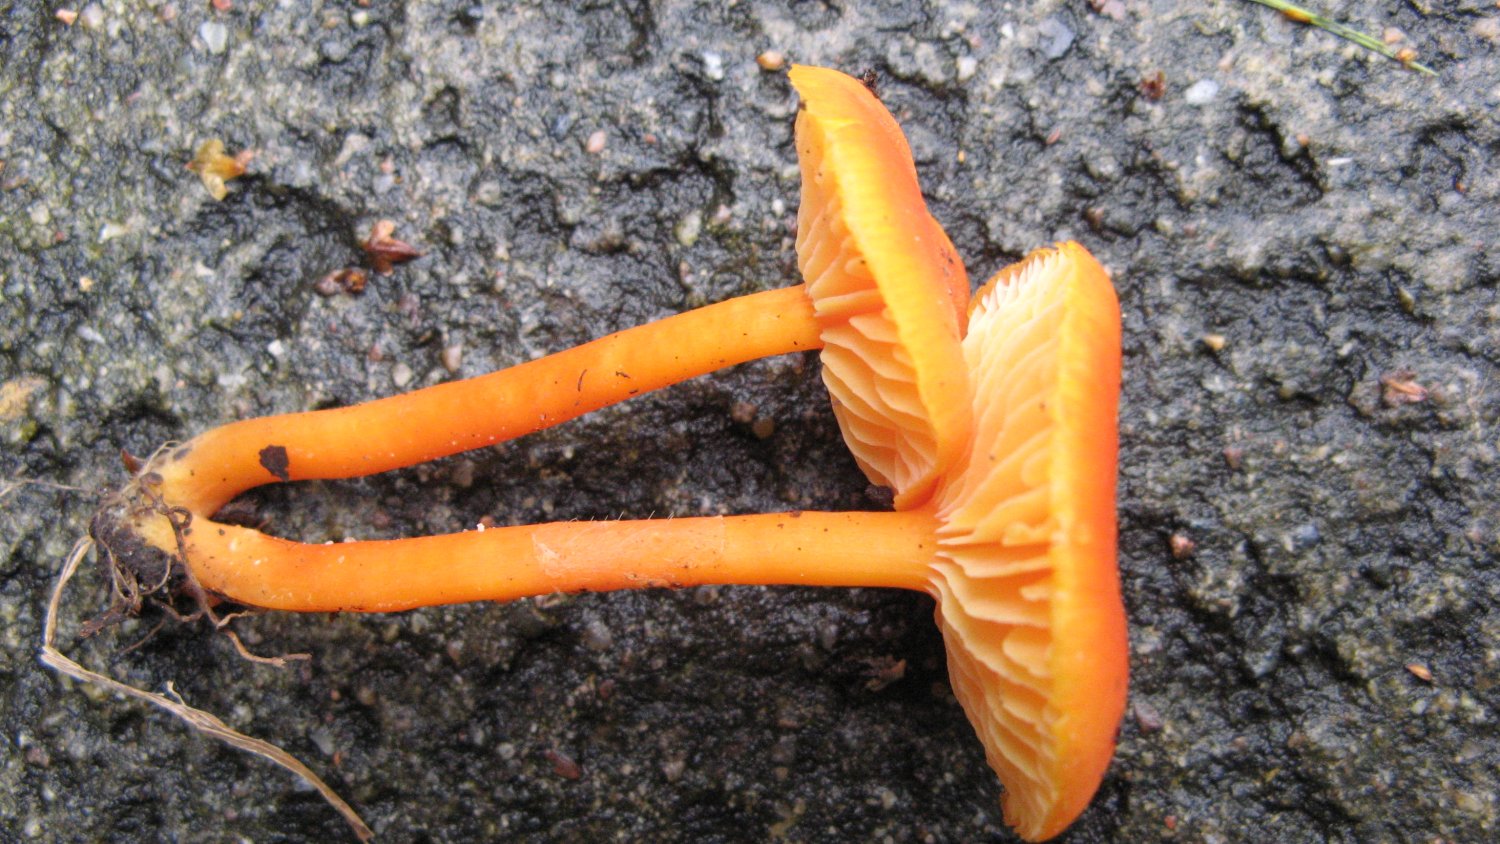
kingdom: Fungi
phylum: Basidiomycota
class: Agaricomycetes
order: Agaricales
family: Hygrophoraceae
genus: Hygrocybe
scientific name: Hygrocybe miniata
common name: mønje-vokshat
